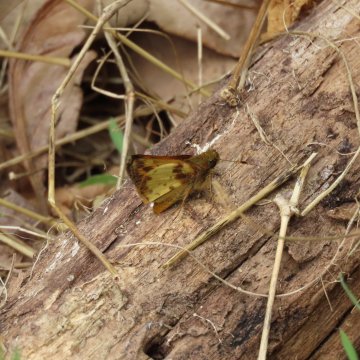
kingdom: Animalia
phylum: Arthropoda
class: Insecta
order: Lepidoptera
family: Hesperiidae
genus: Lon
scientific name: Lon zabulon
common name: Zabulon Skipper
